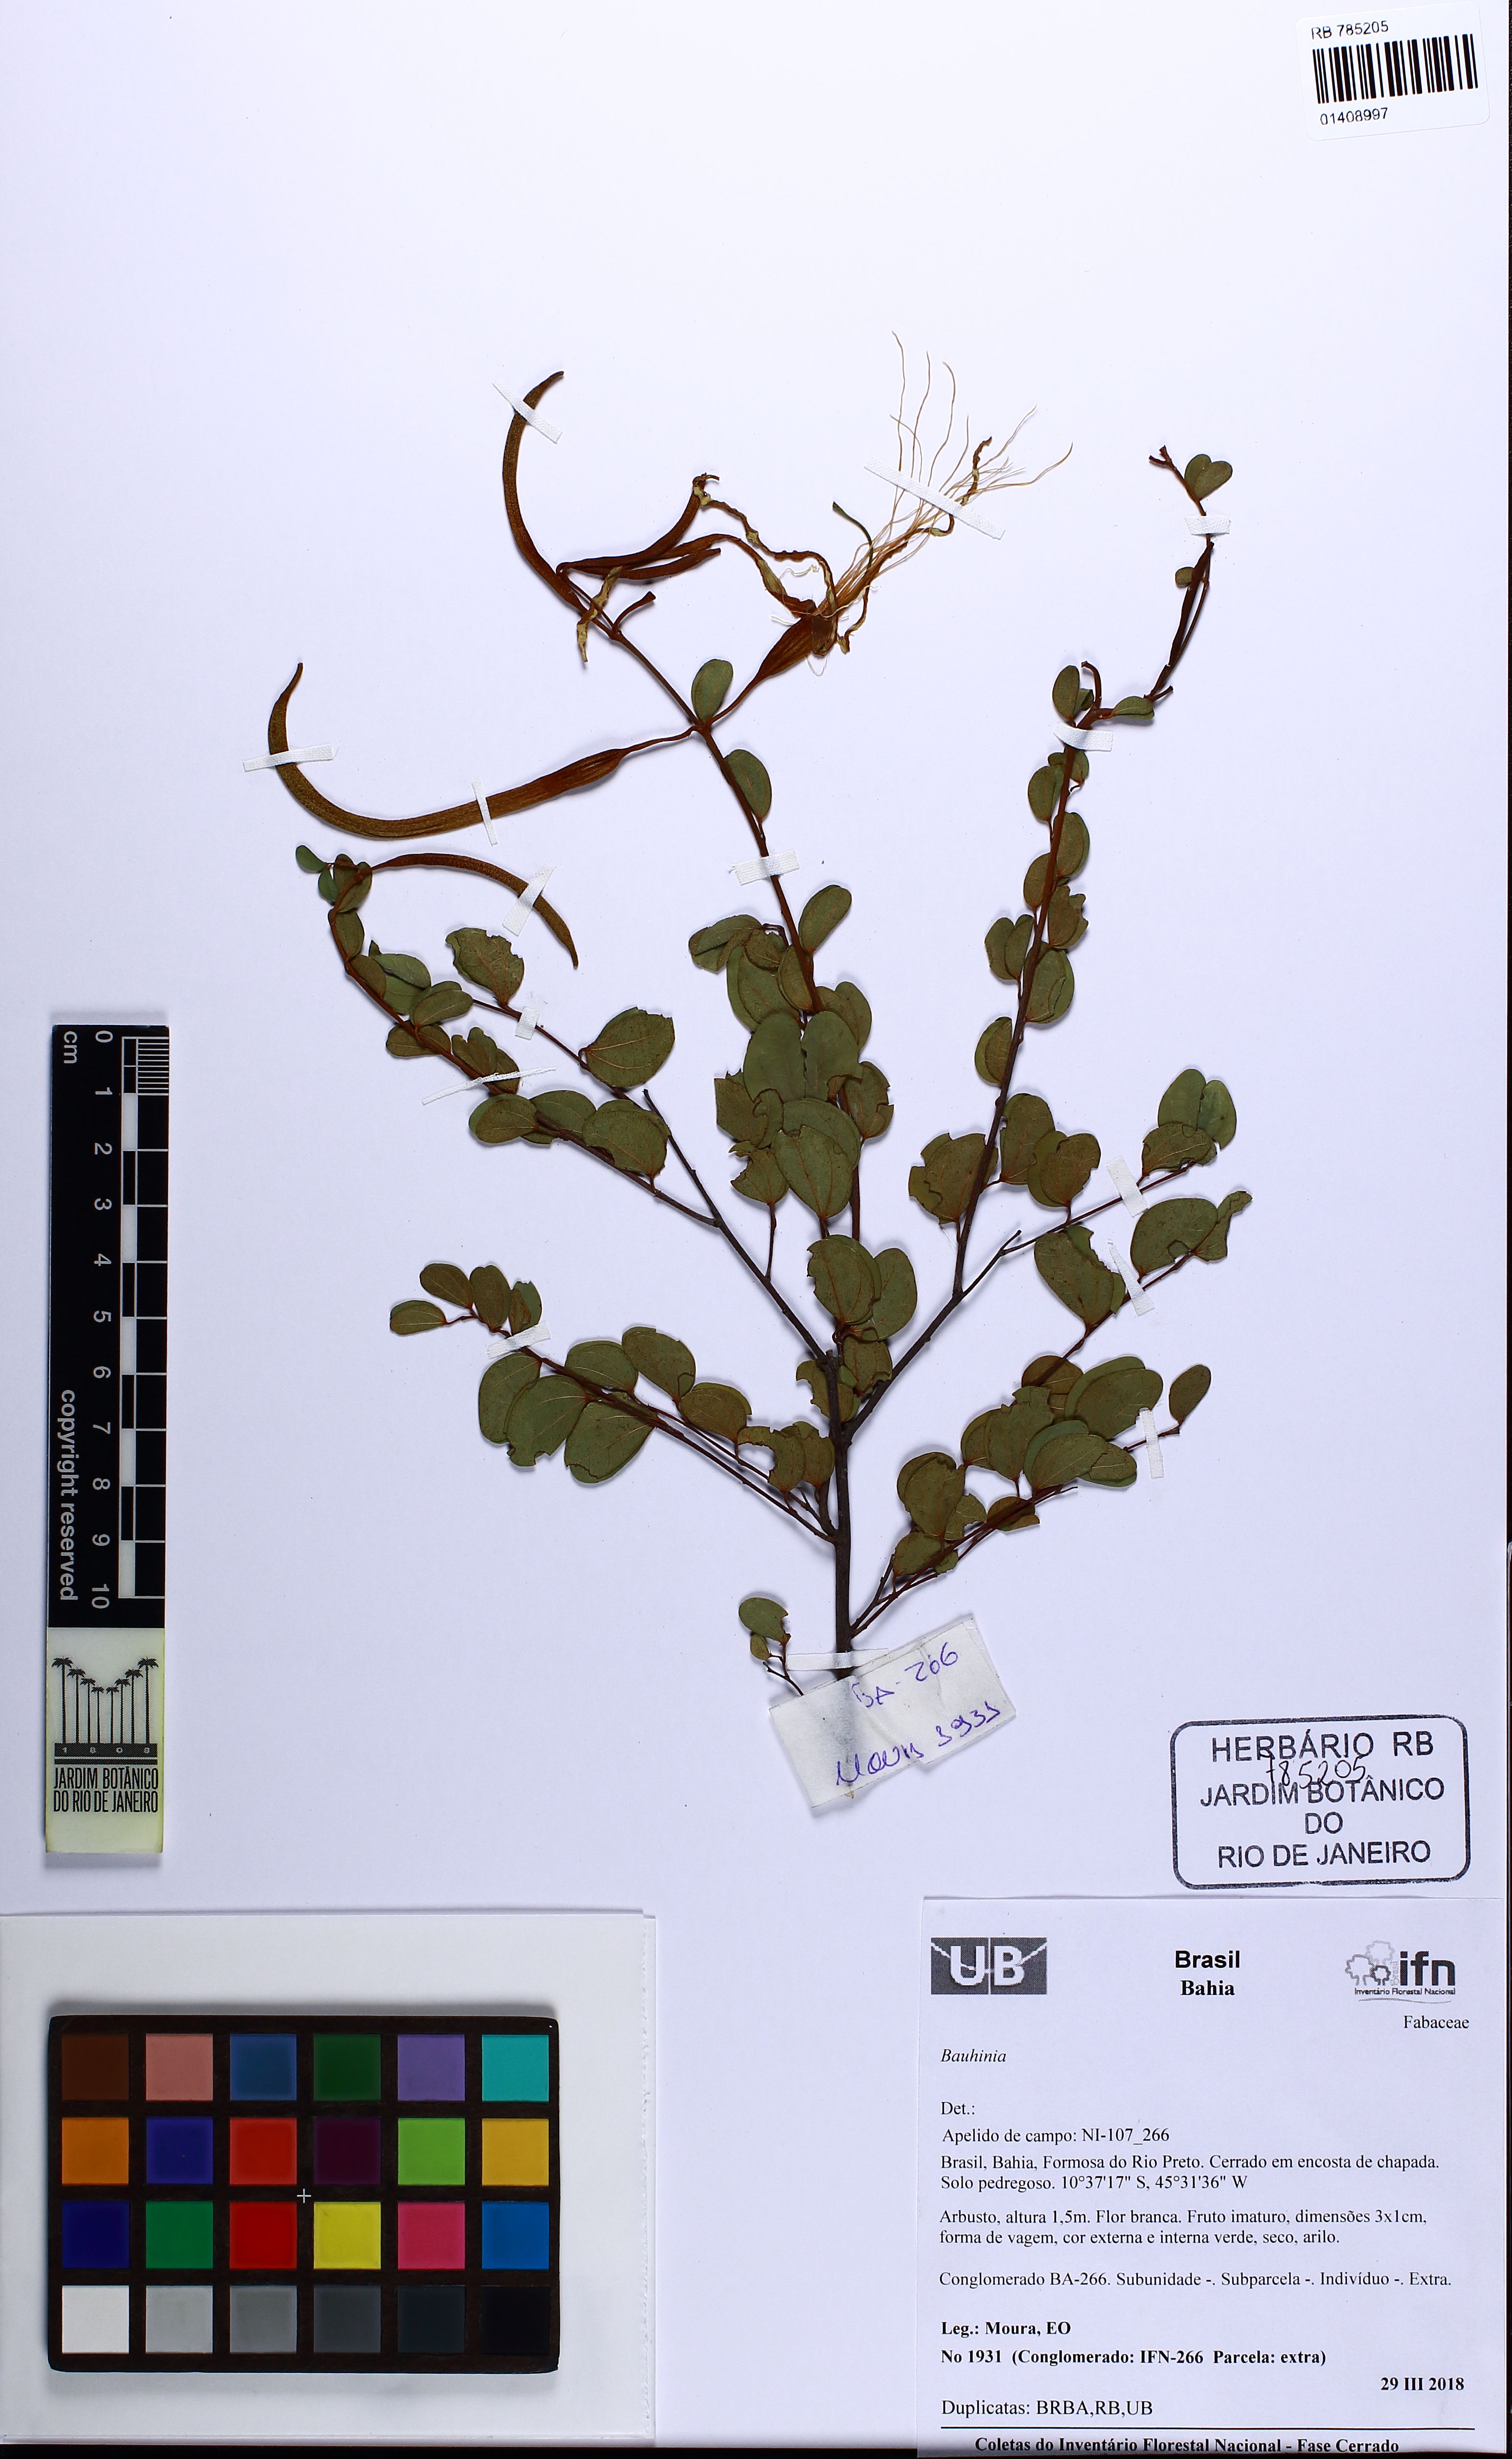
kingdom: Plantae
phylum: Tracheophyta
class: Magnoliopsida
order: Fabales
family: Fabaceae
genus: Bauhinia
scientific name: Bauhinia
